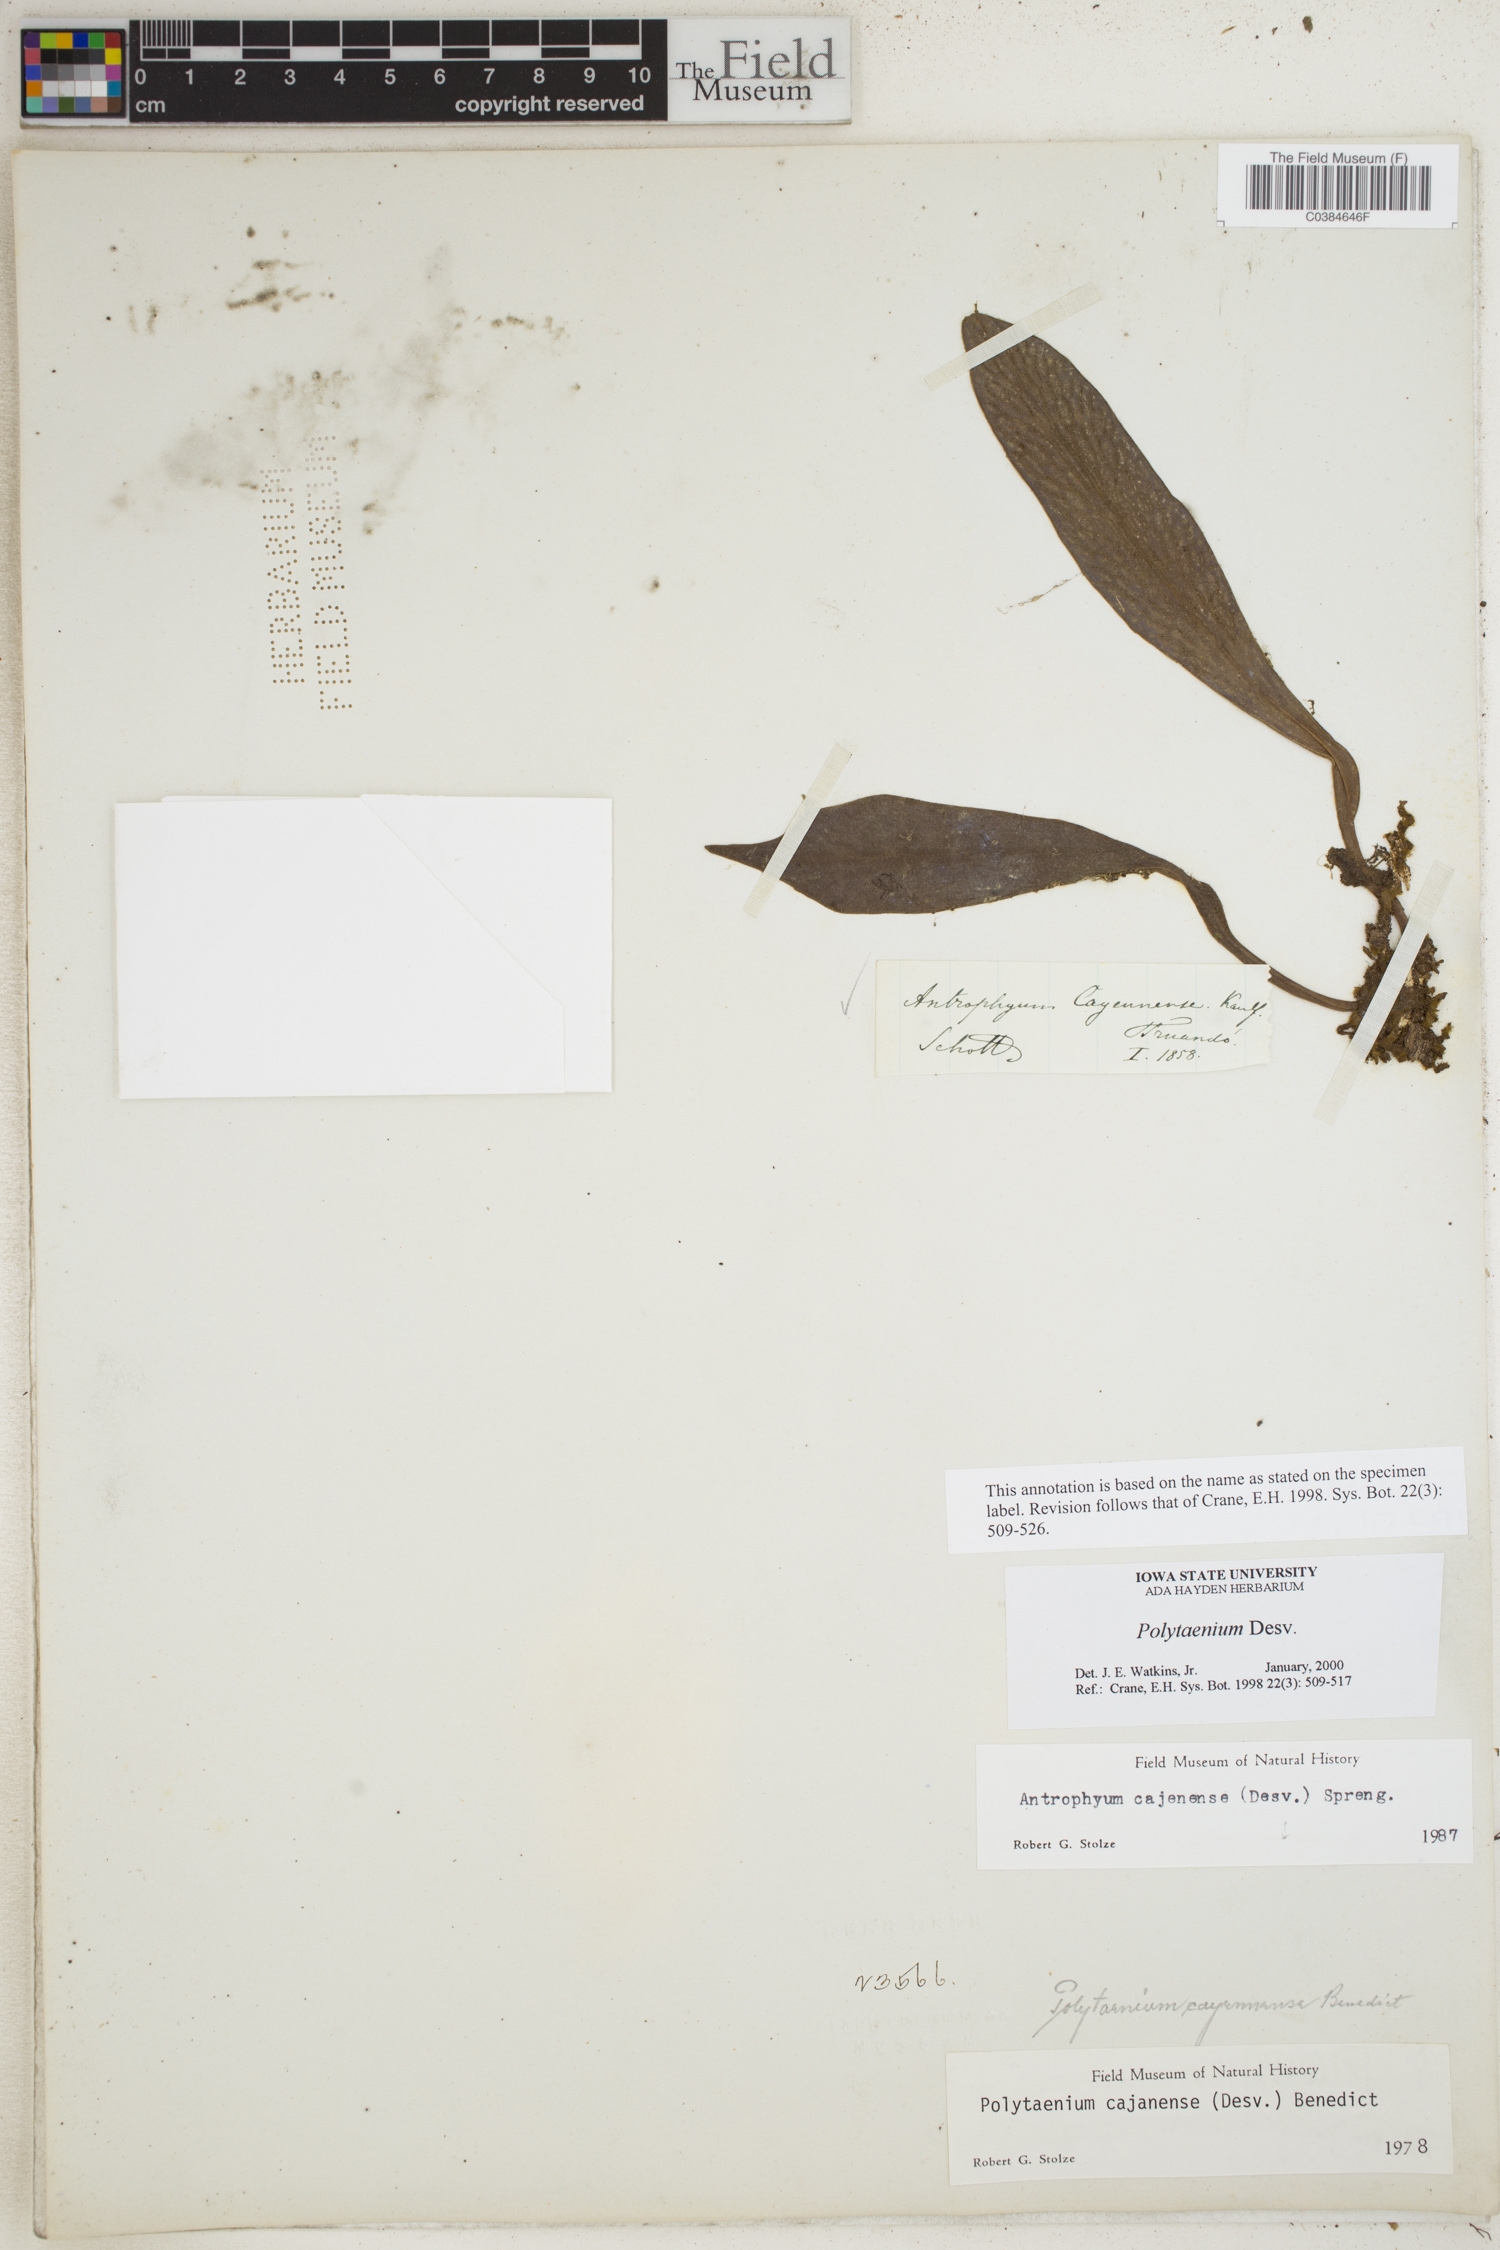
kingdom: Plantae
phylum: Tracheophyta
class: Polypodiopsida
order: Polypodiales
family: Pteridaceae
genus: Polytaenium
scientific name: Polytaenium
